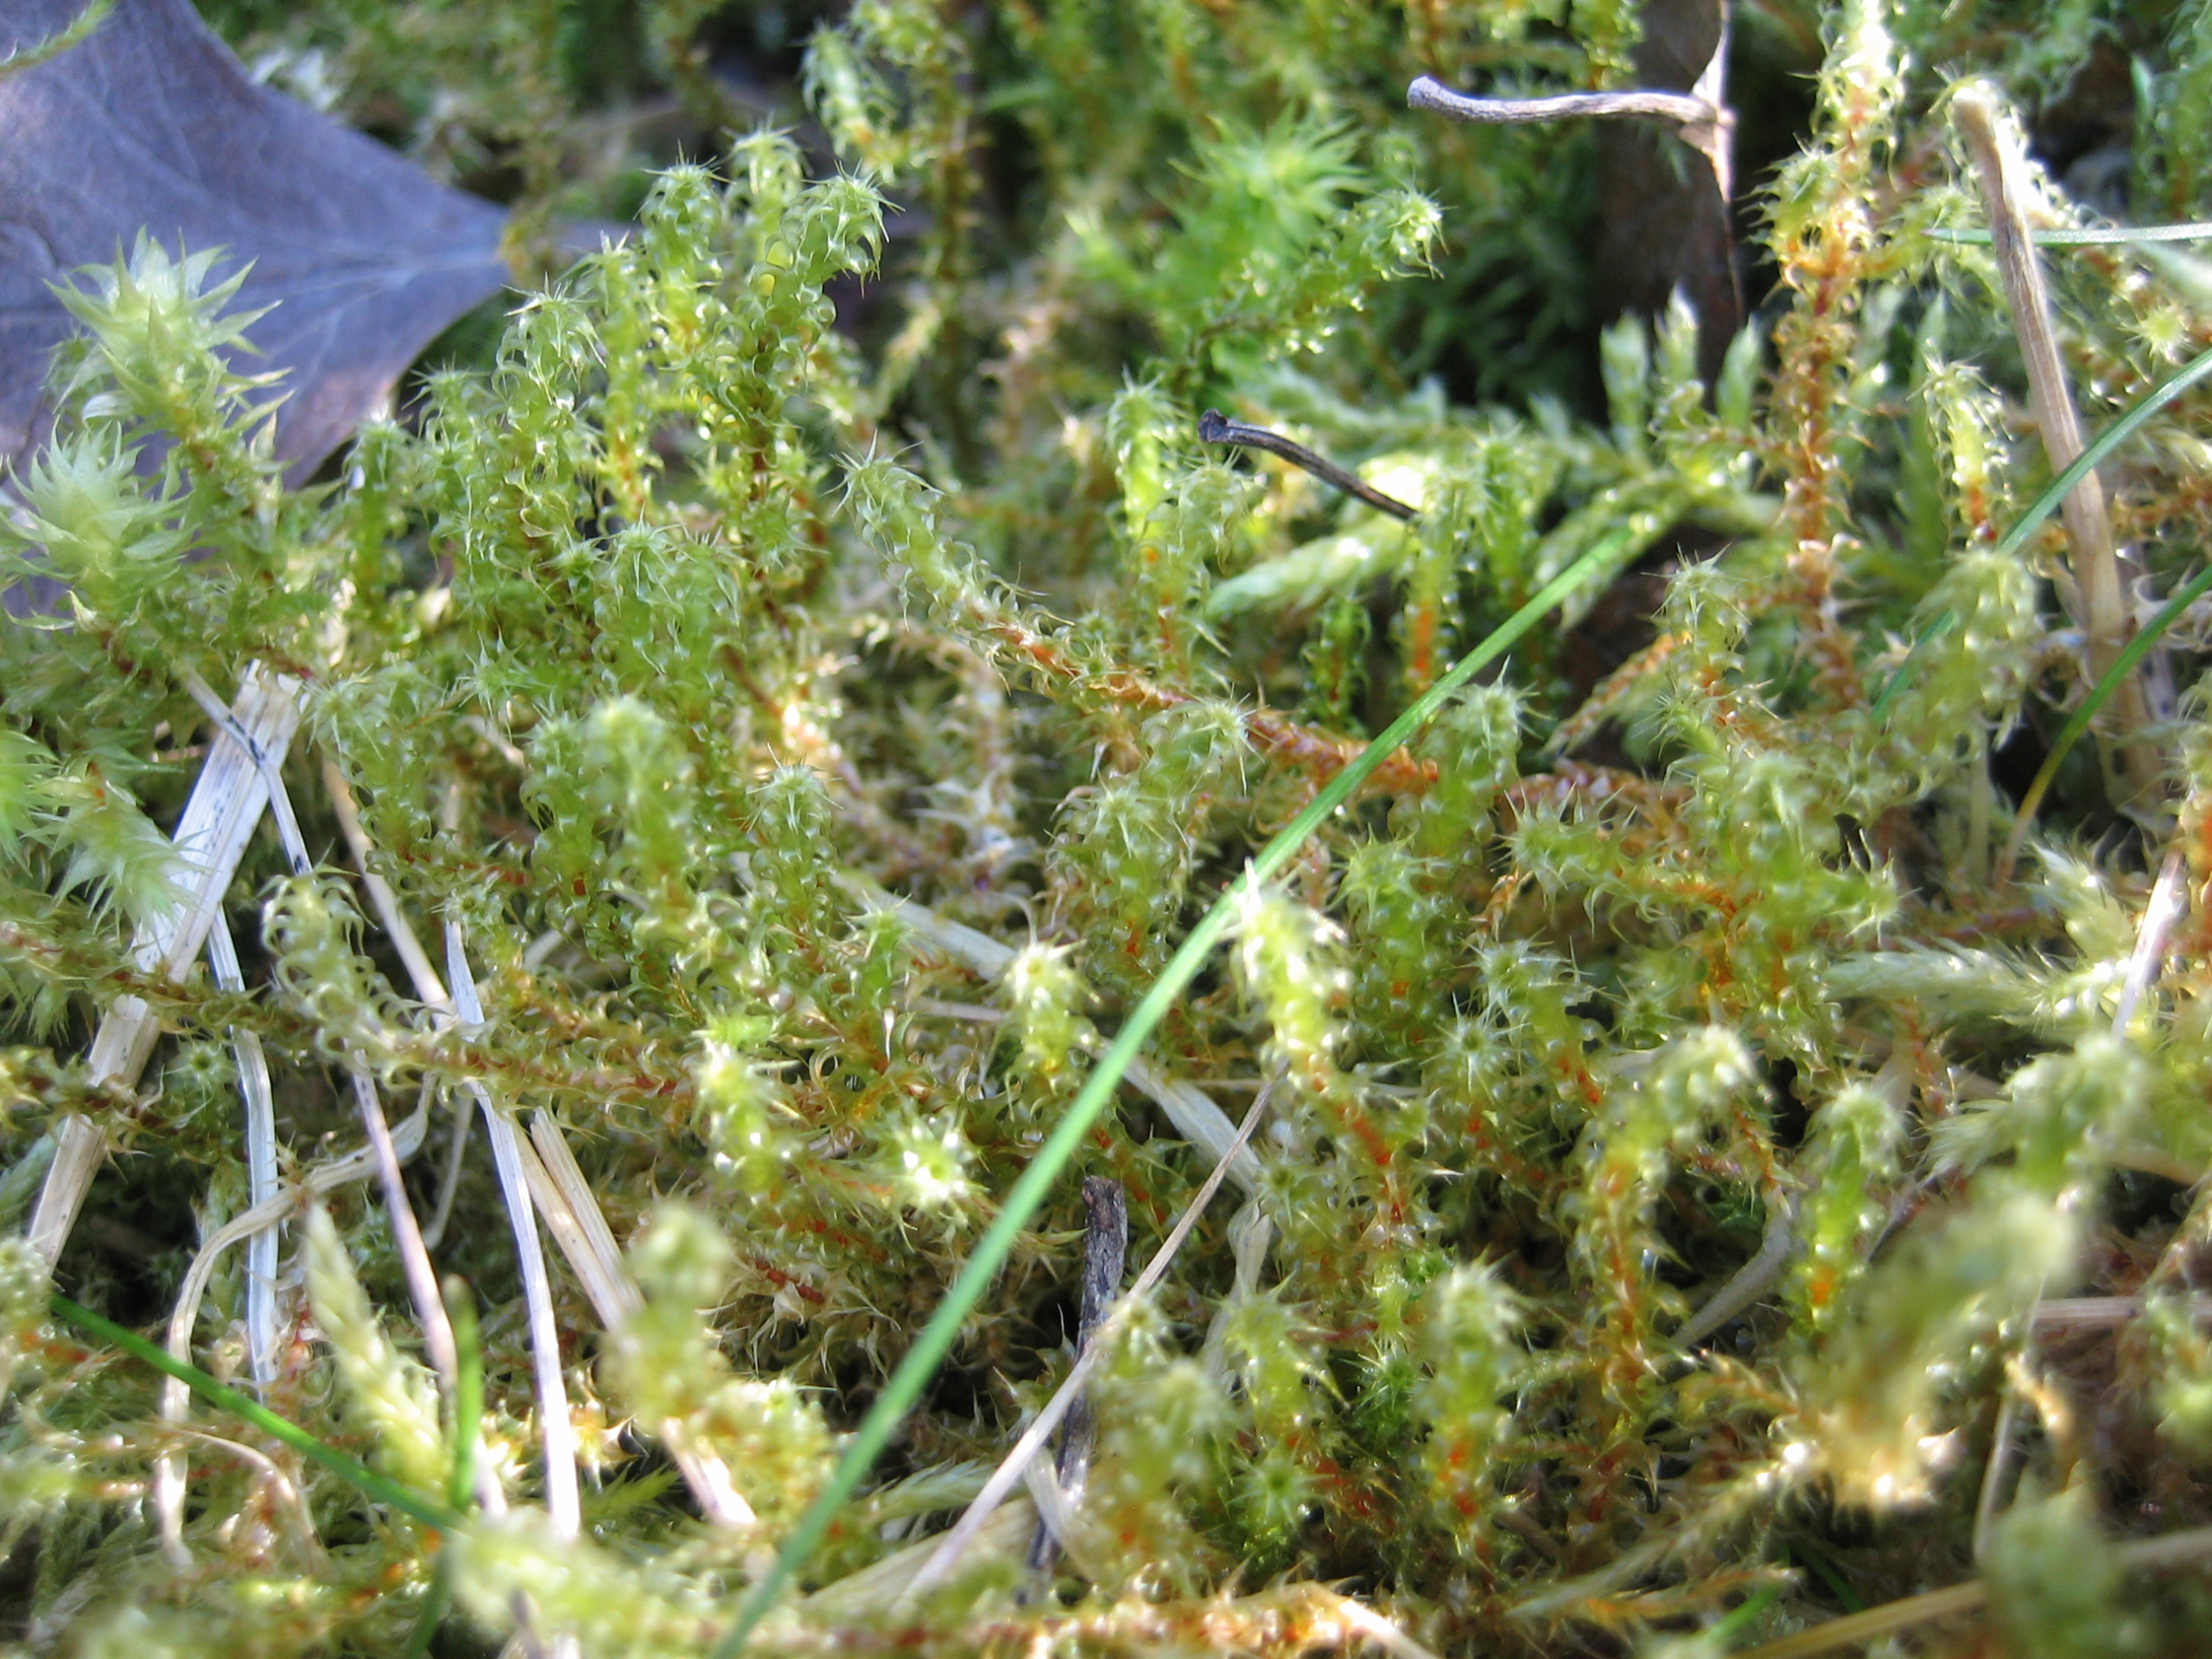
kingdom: Plantae
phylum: Bryophyta
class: Bryopsida
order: Hypnales
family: Hylocomiaceae
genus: Rhytidiadelphus
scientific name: Rhytidiadelphus squarrosus
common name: Plæne-kransemos
